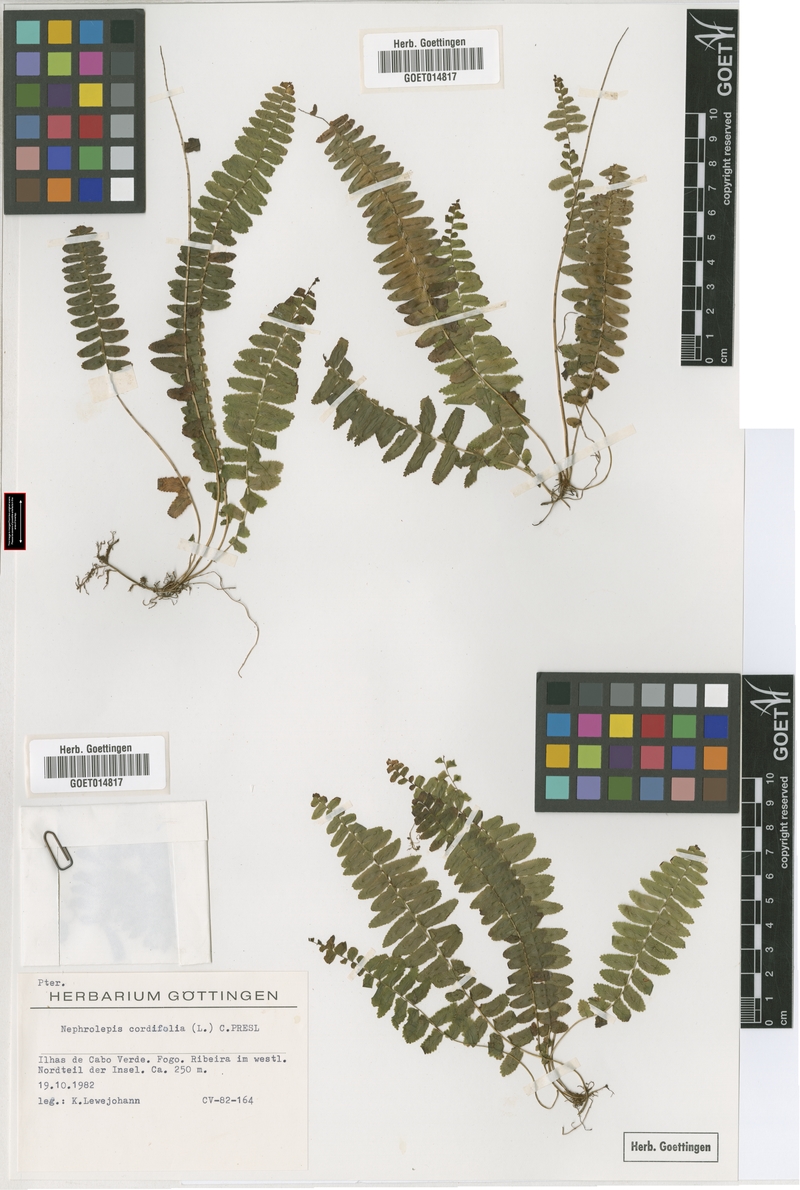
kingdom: Plantae
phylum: Tracheophyta
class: Polypodiopsida
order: Polypodiales
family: Nephrolepidaceae
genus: Nephrolepis
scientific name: Nephrolepis cordifolia
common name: Narrow swordfern
